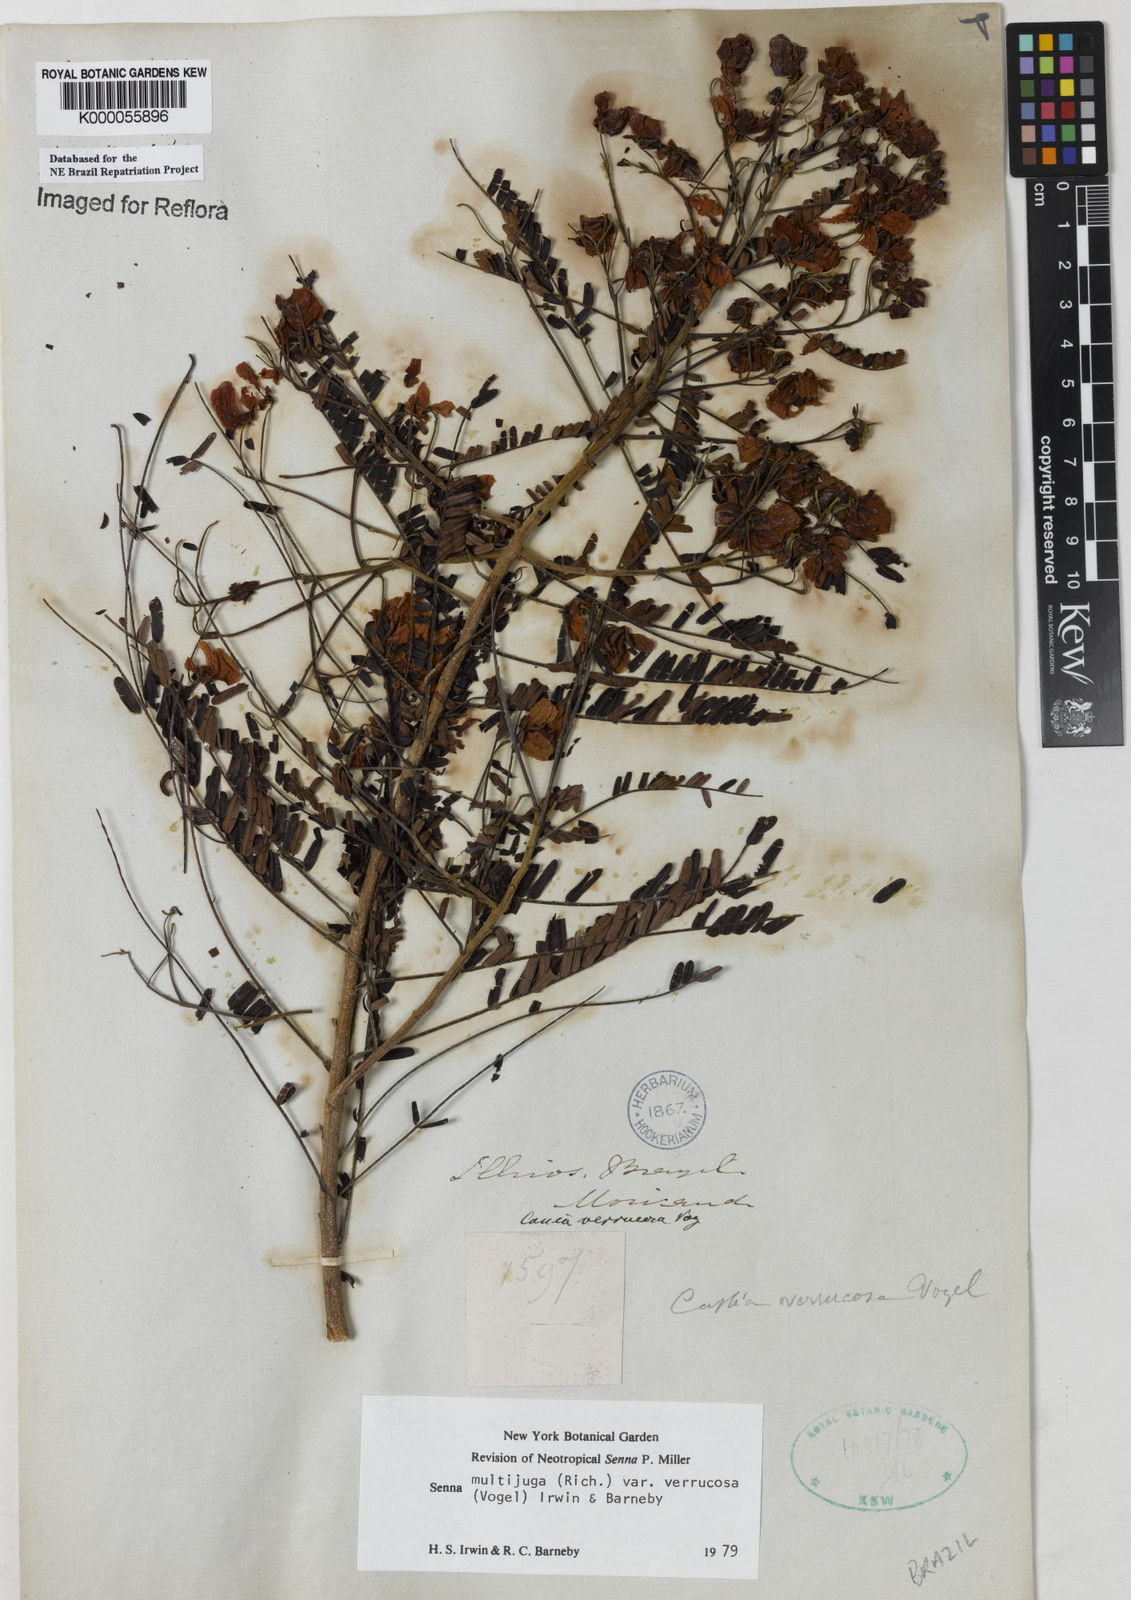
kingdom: Plantae
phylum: Tracheophyta
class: Magnoliopsida
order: Fabales
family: Fabaceae
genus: Senna
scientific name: Senna multijuga
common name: False sicklepod
